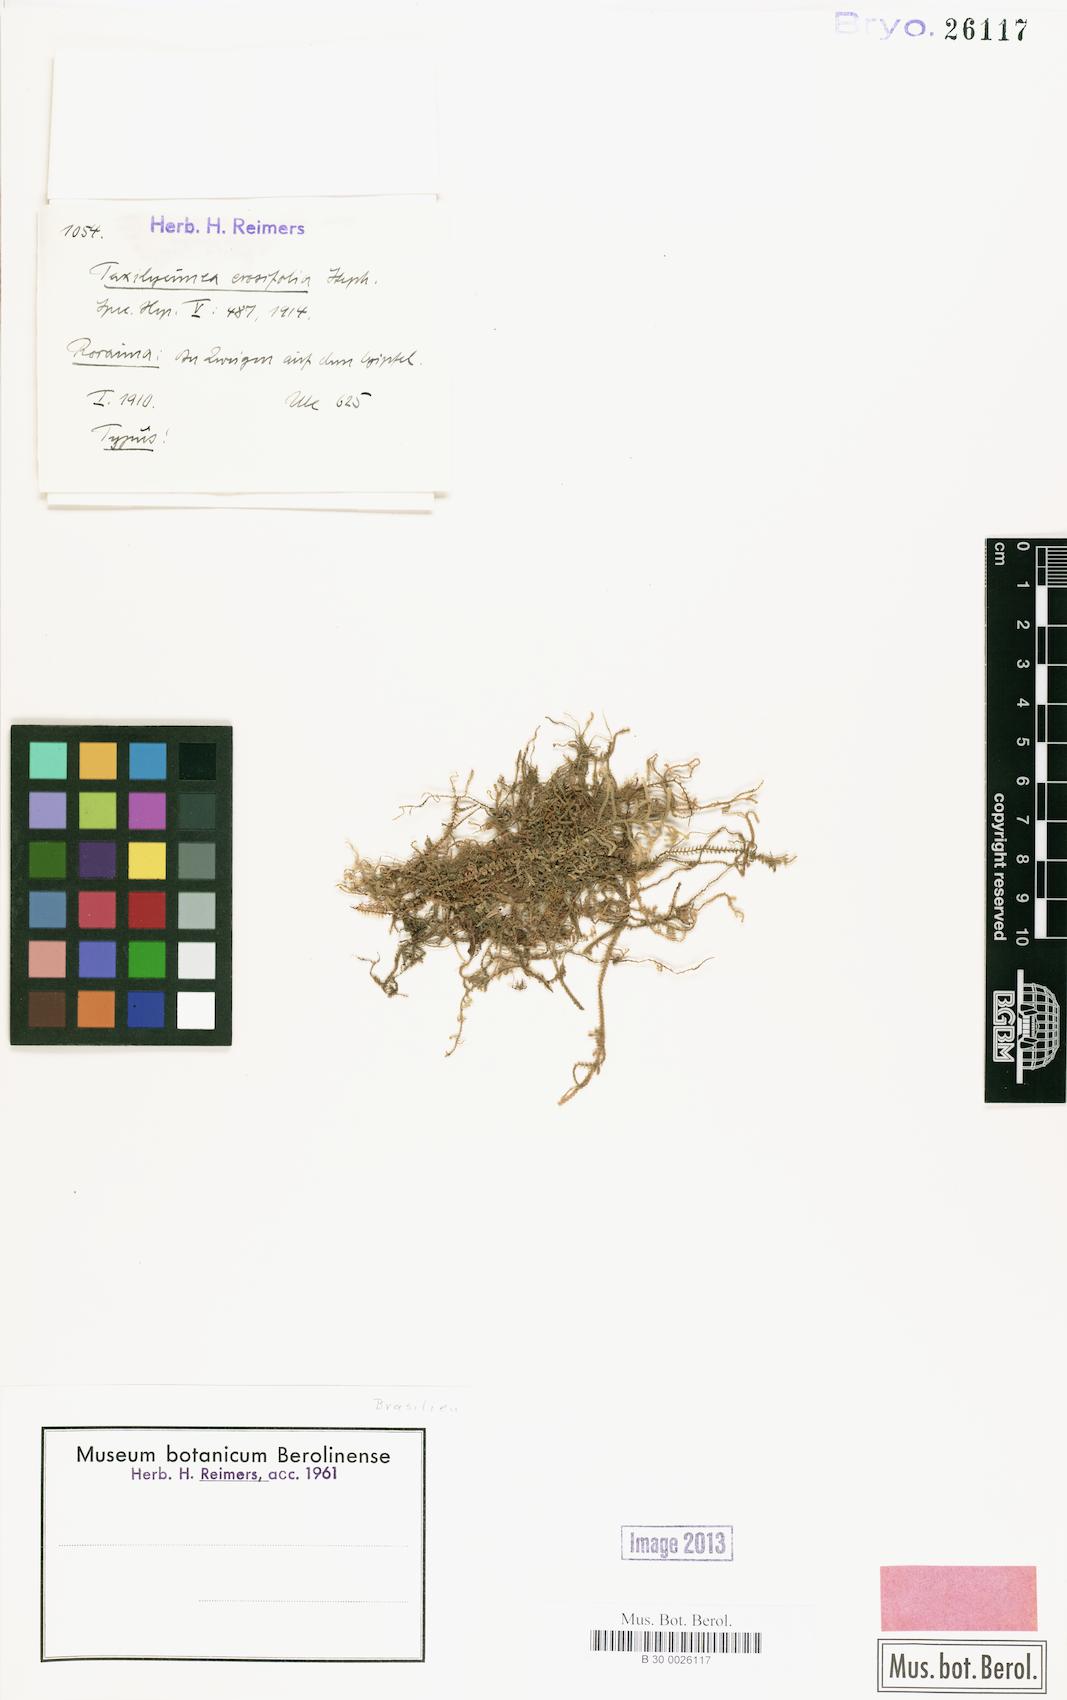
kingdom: Plantae
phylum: Marchantiophyta
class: Jungermanniopsida
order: Porellales
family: Lejeuneaceae
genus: Lejeunea
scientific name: Lejeunea flaccida
